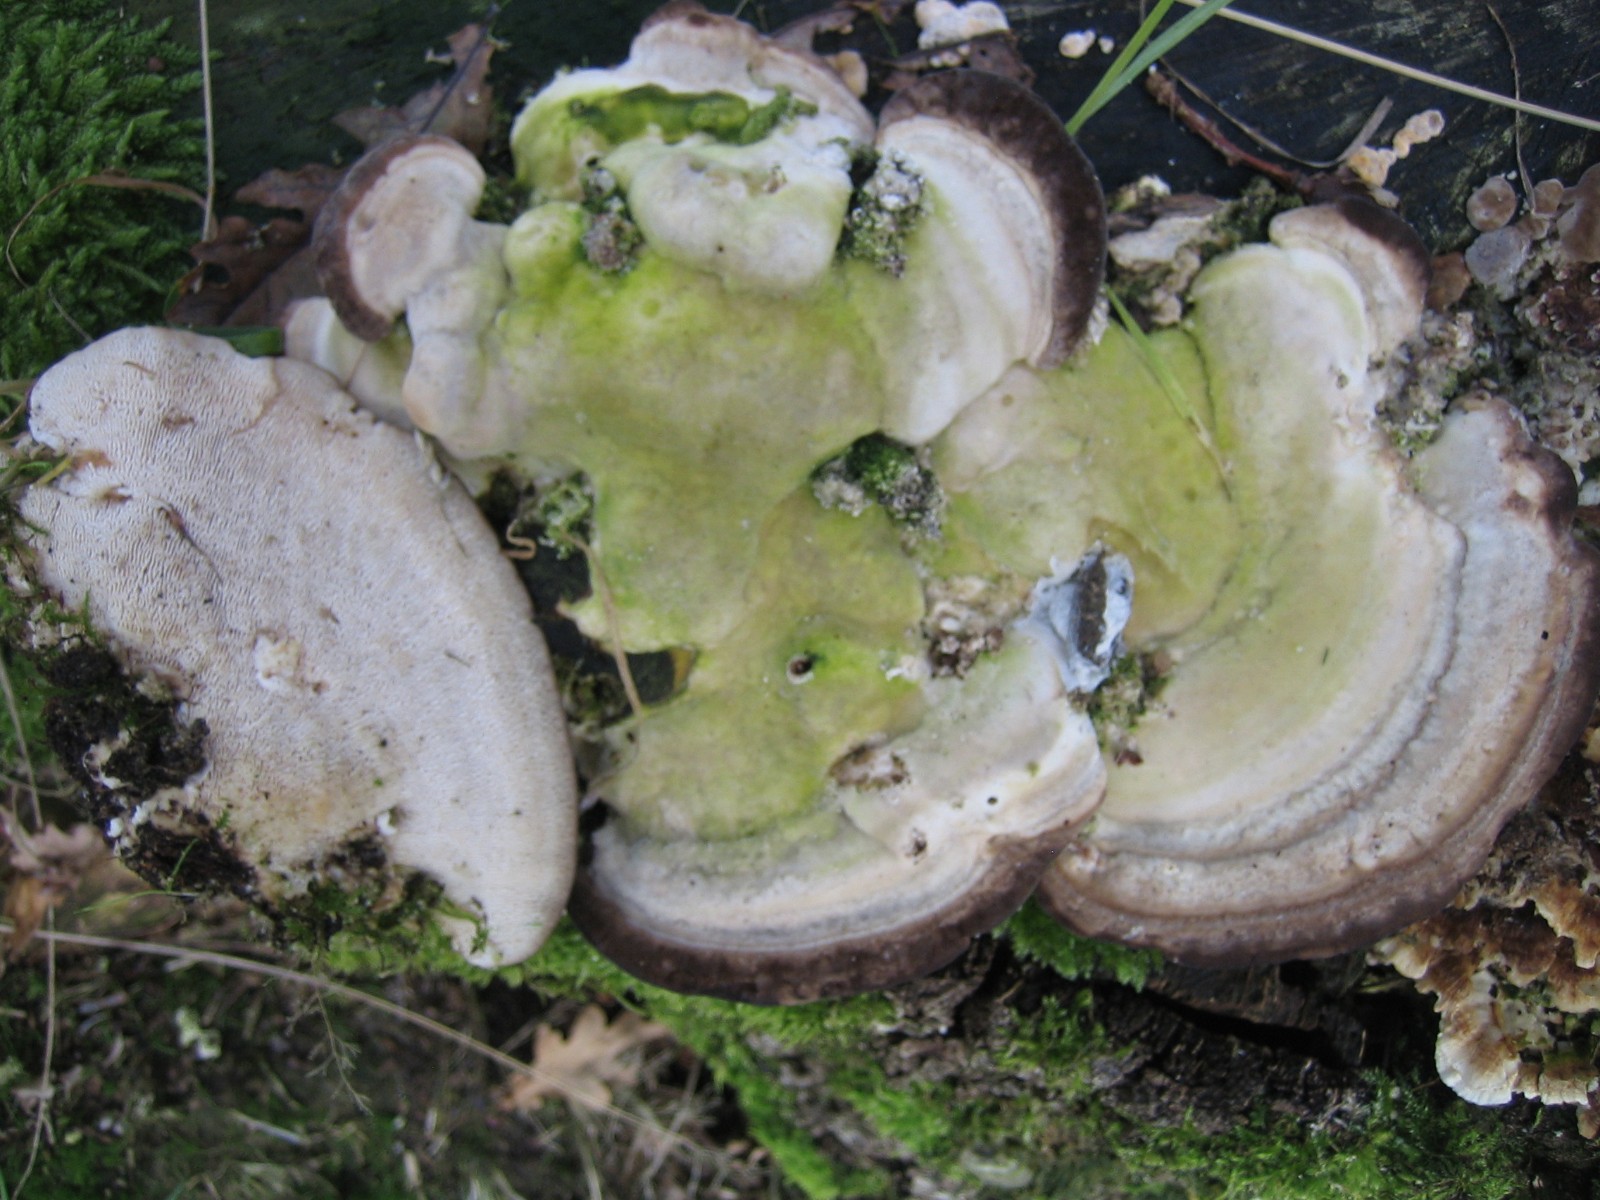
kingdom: Fungi
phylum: Basidiomycota
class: Agaricomycetes
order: Polyporales
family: Polyporaceae
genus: Trametes
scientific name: Trametes gibbosa
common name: puklet læderporesvamp
